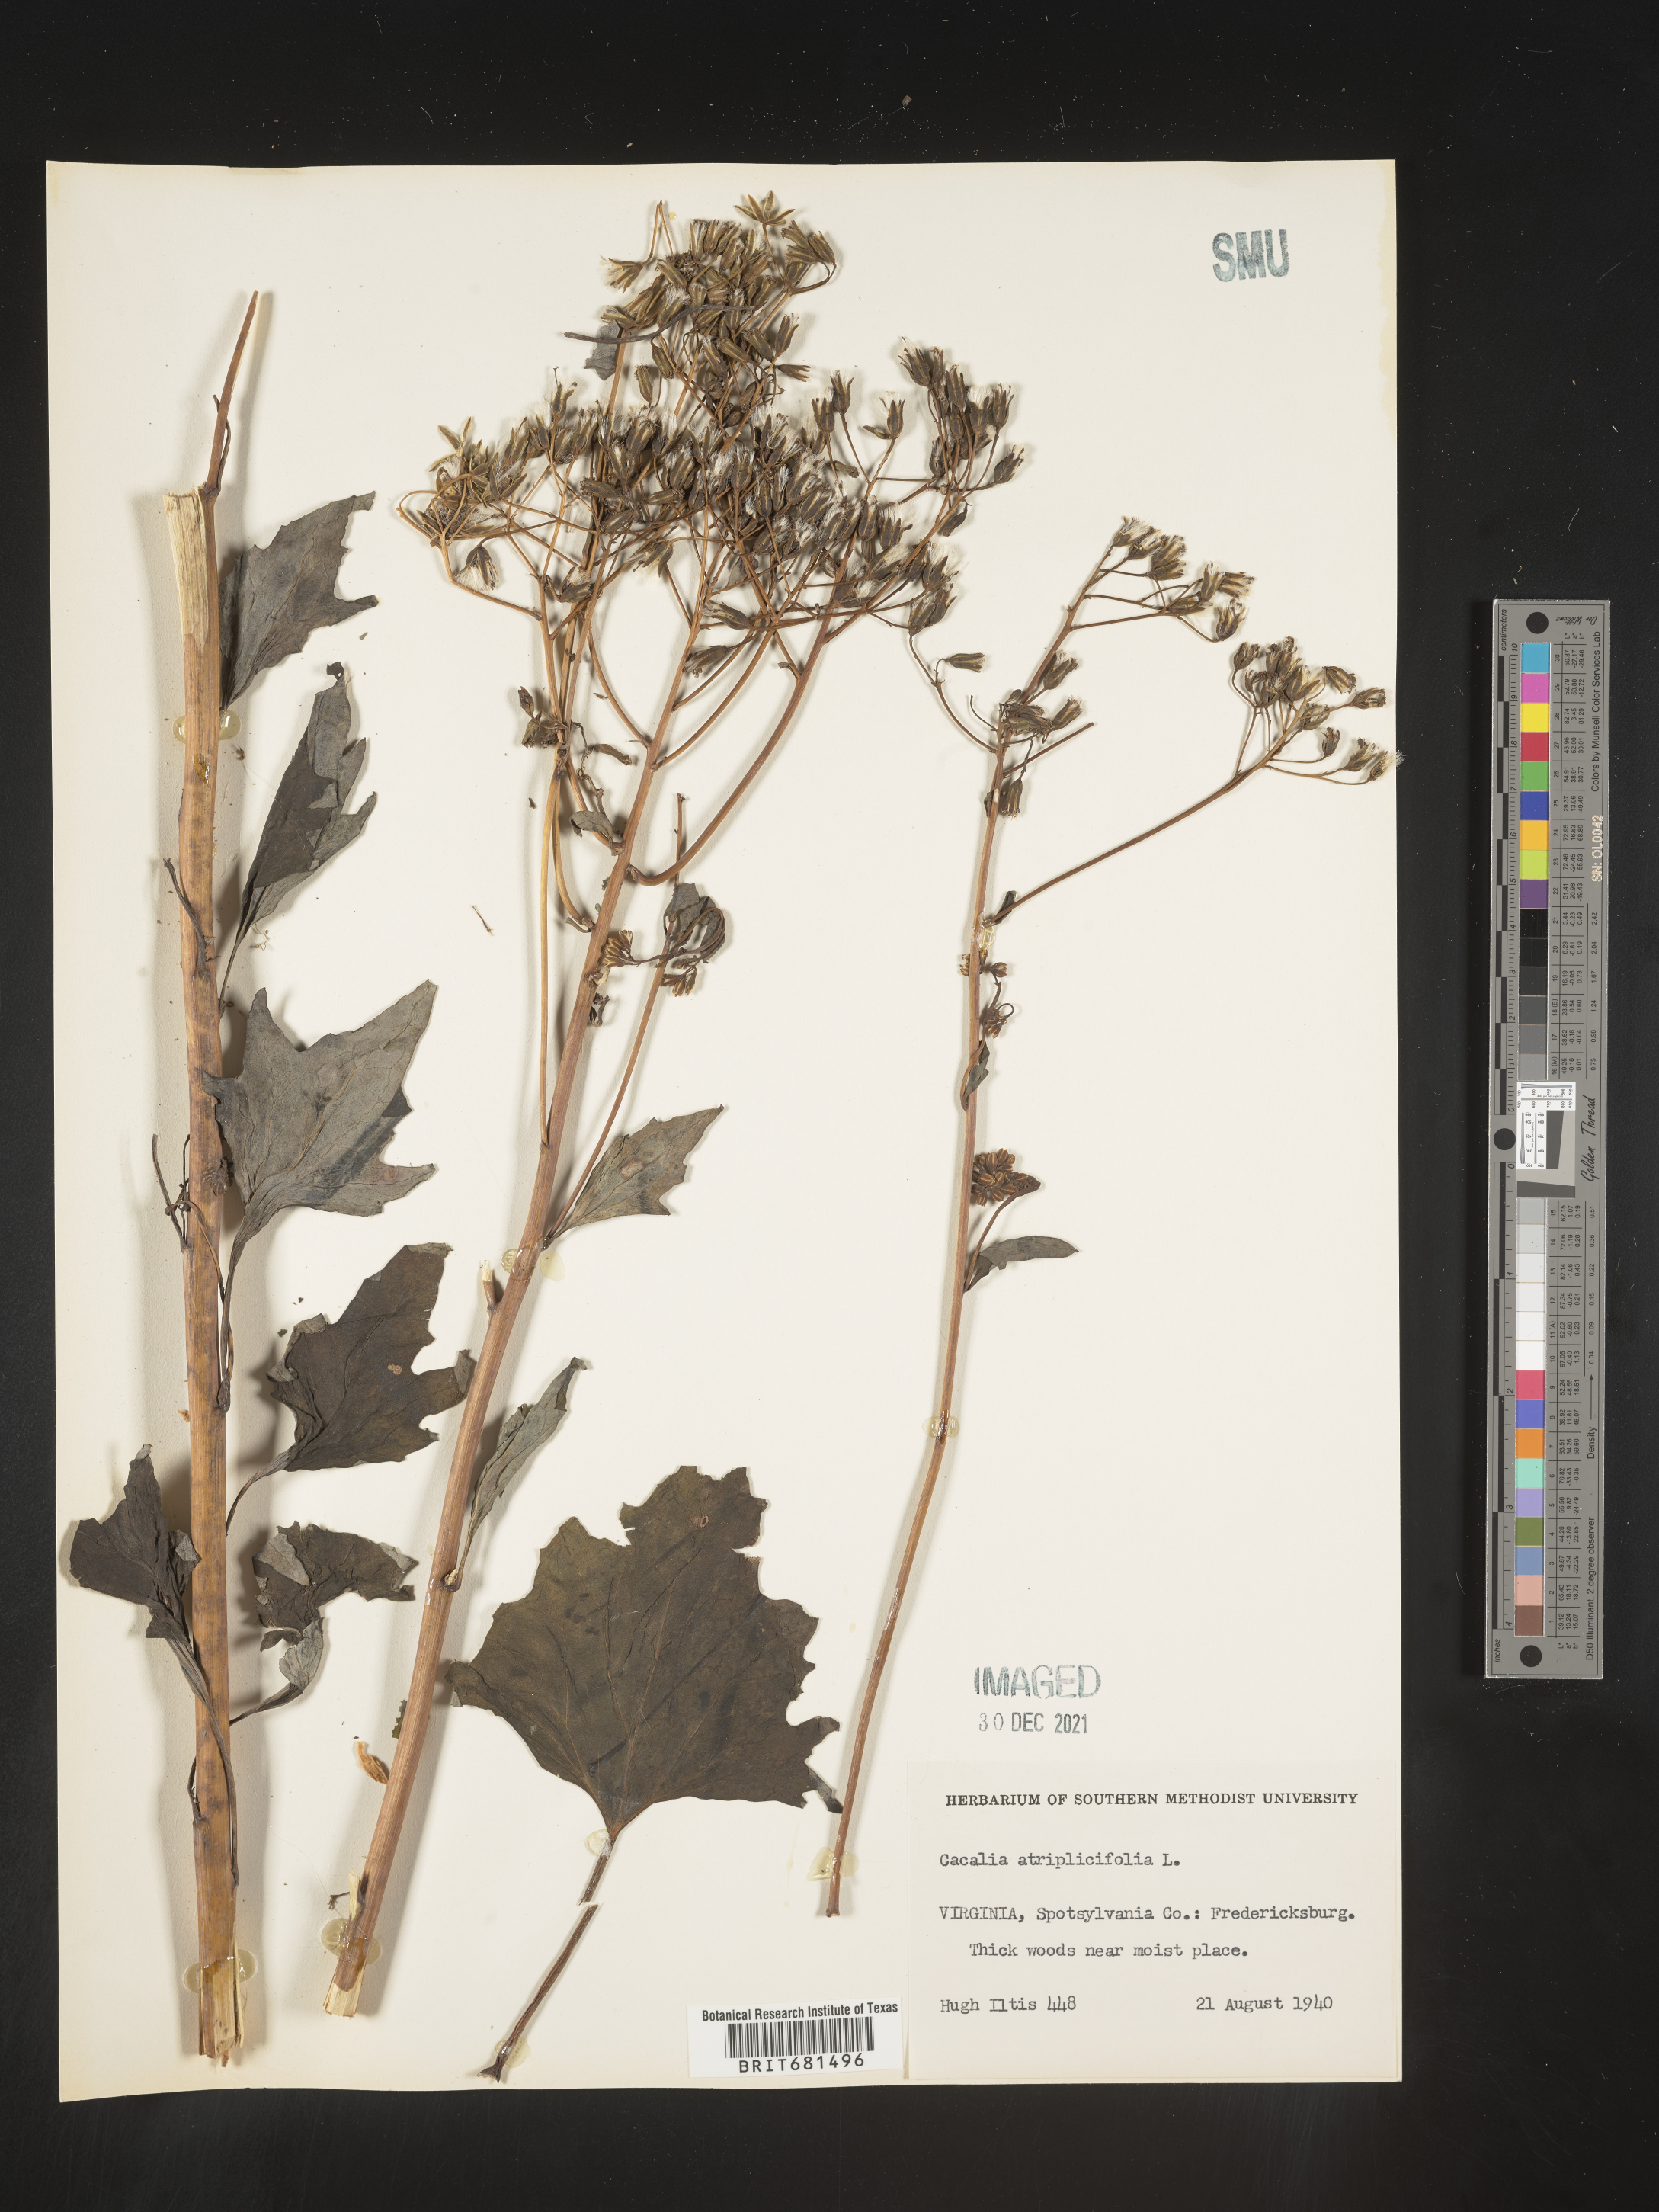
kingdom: Plantae
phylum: Tracheophyta
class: Magnoliopsida
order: Asterales
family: Asteraceae
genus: Arnoglossum
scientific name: Arnoglossum atriplicifolium
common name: Pale indian-plantain
